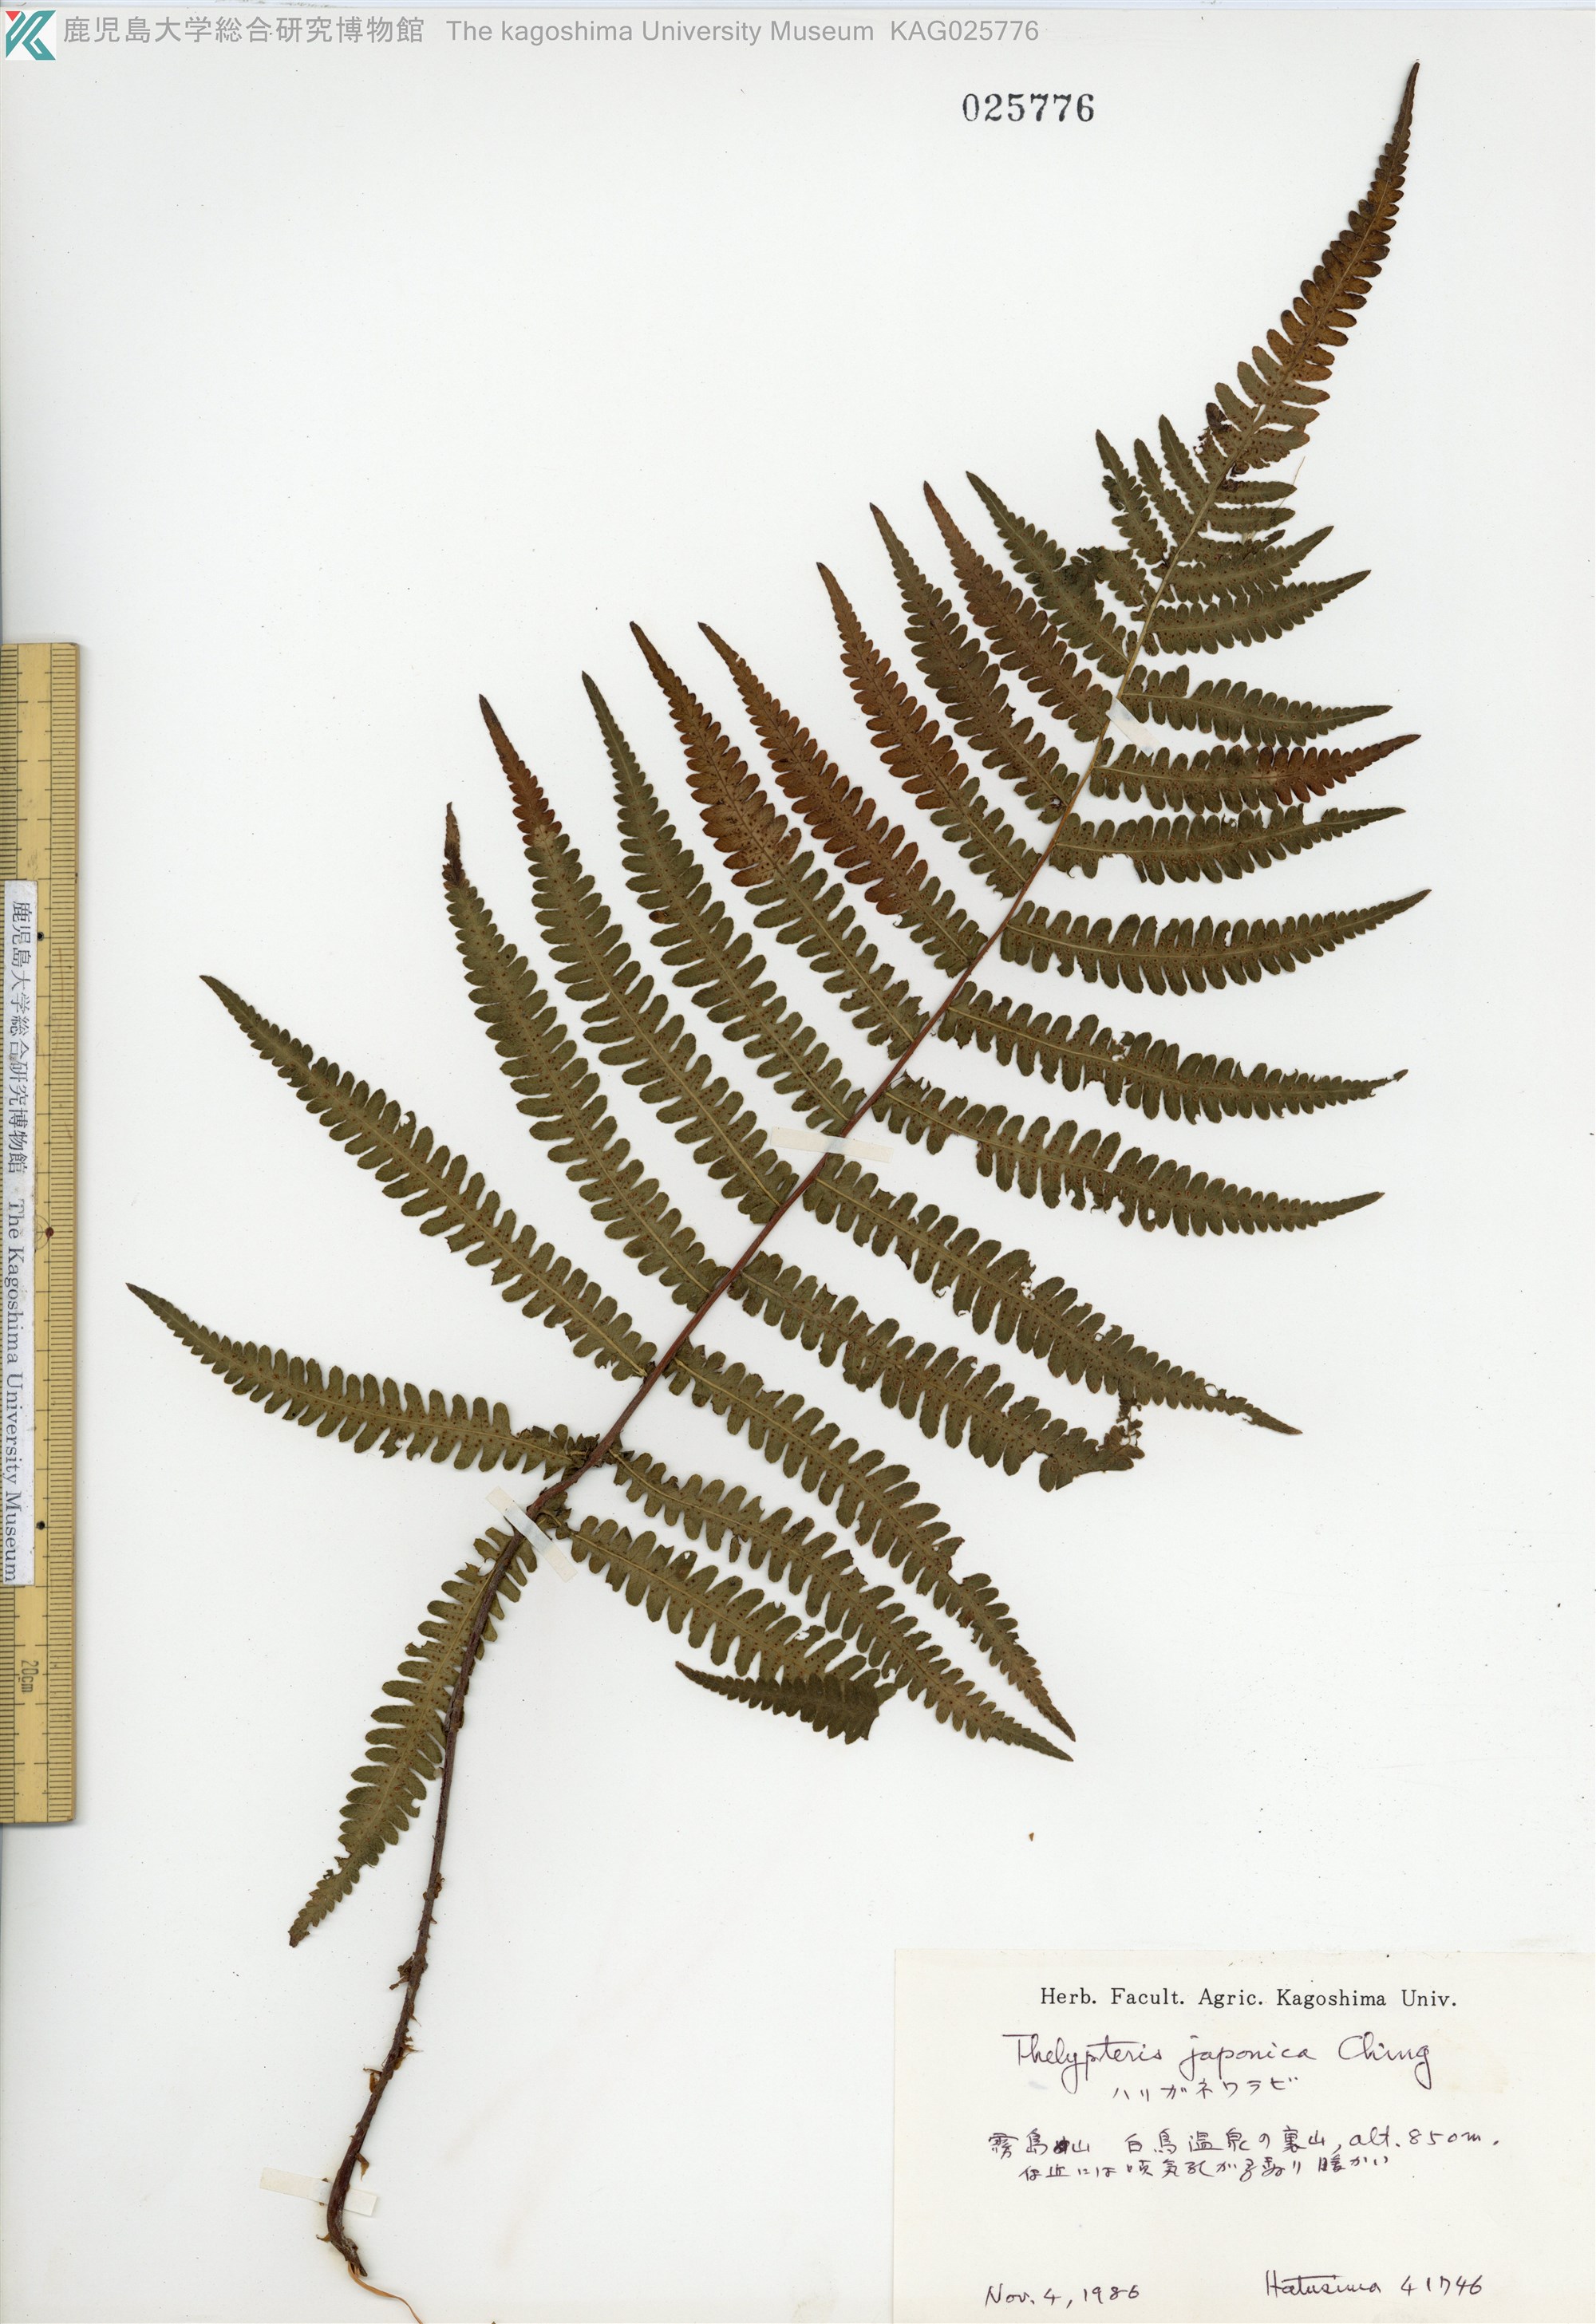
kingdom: Plantae
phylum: Tracheophyta
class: Polypodiopsida
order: Polypodiales
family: Thelypteridaceae
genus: Coryphopteris
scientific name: Coryphopteris japonica
